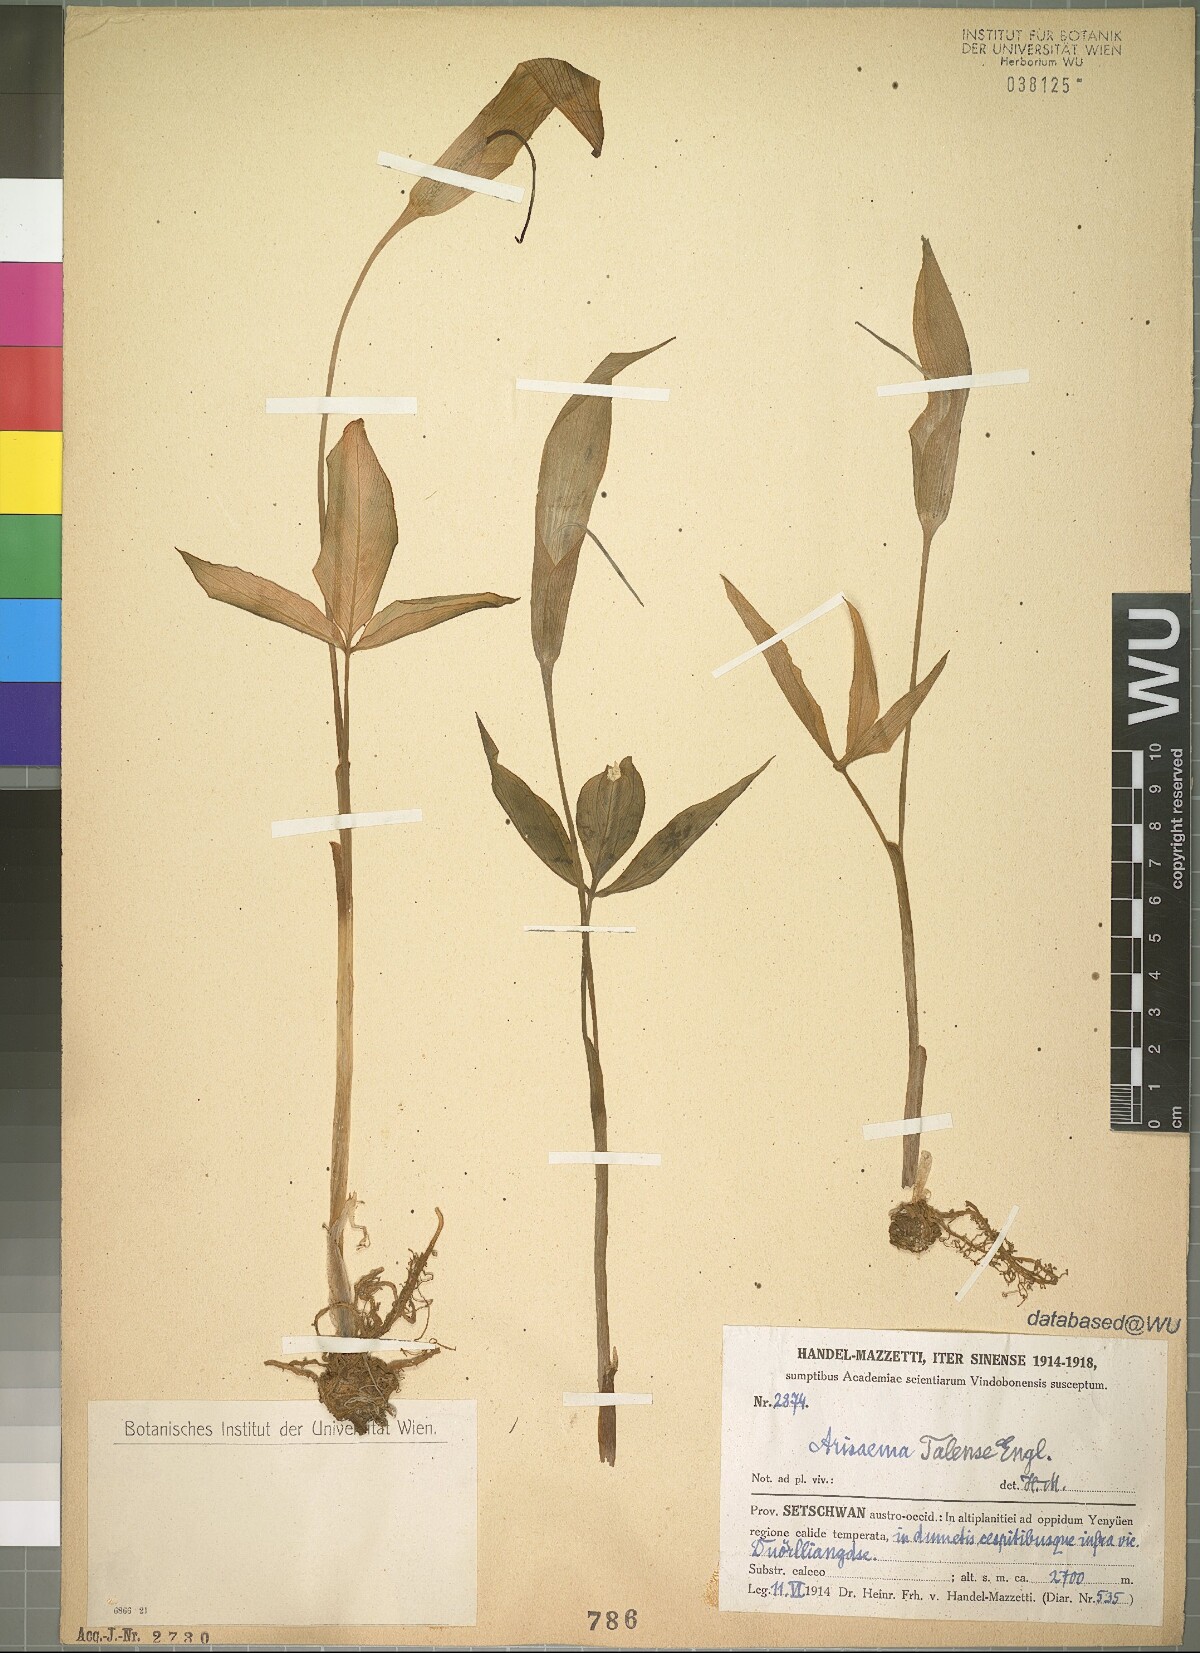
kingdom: Plantae
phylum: Tracheophyta
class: Liliopsida
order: Alismatales
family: Araceae
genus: Arisaema
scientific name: Arisaema lichiangense
